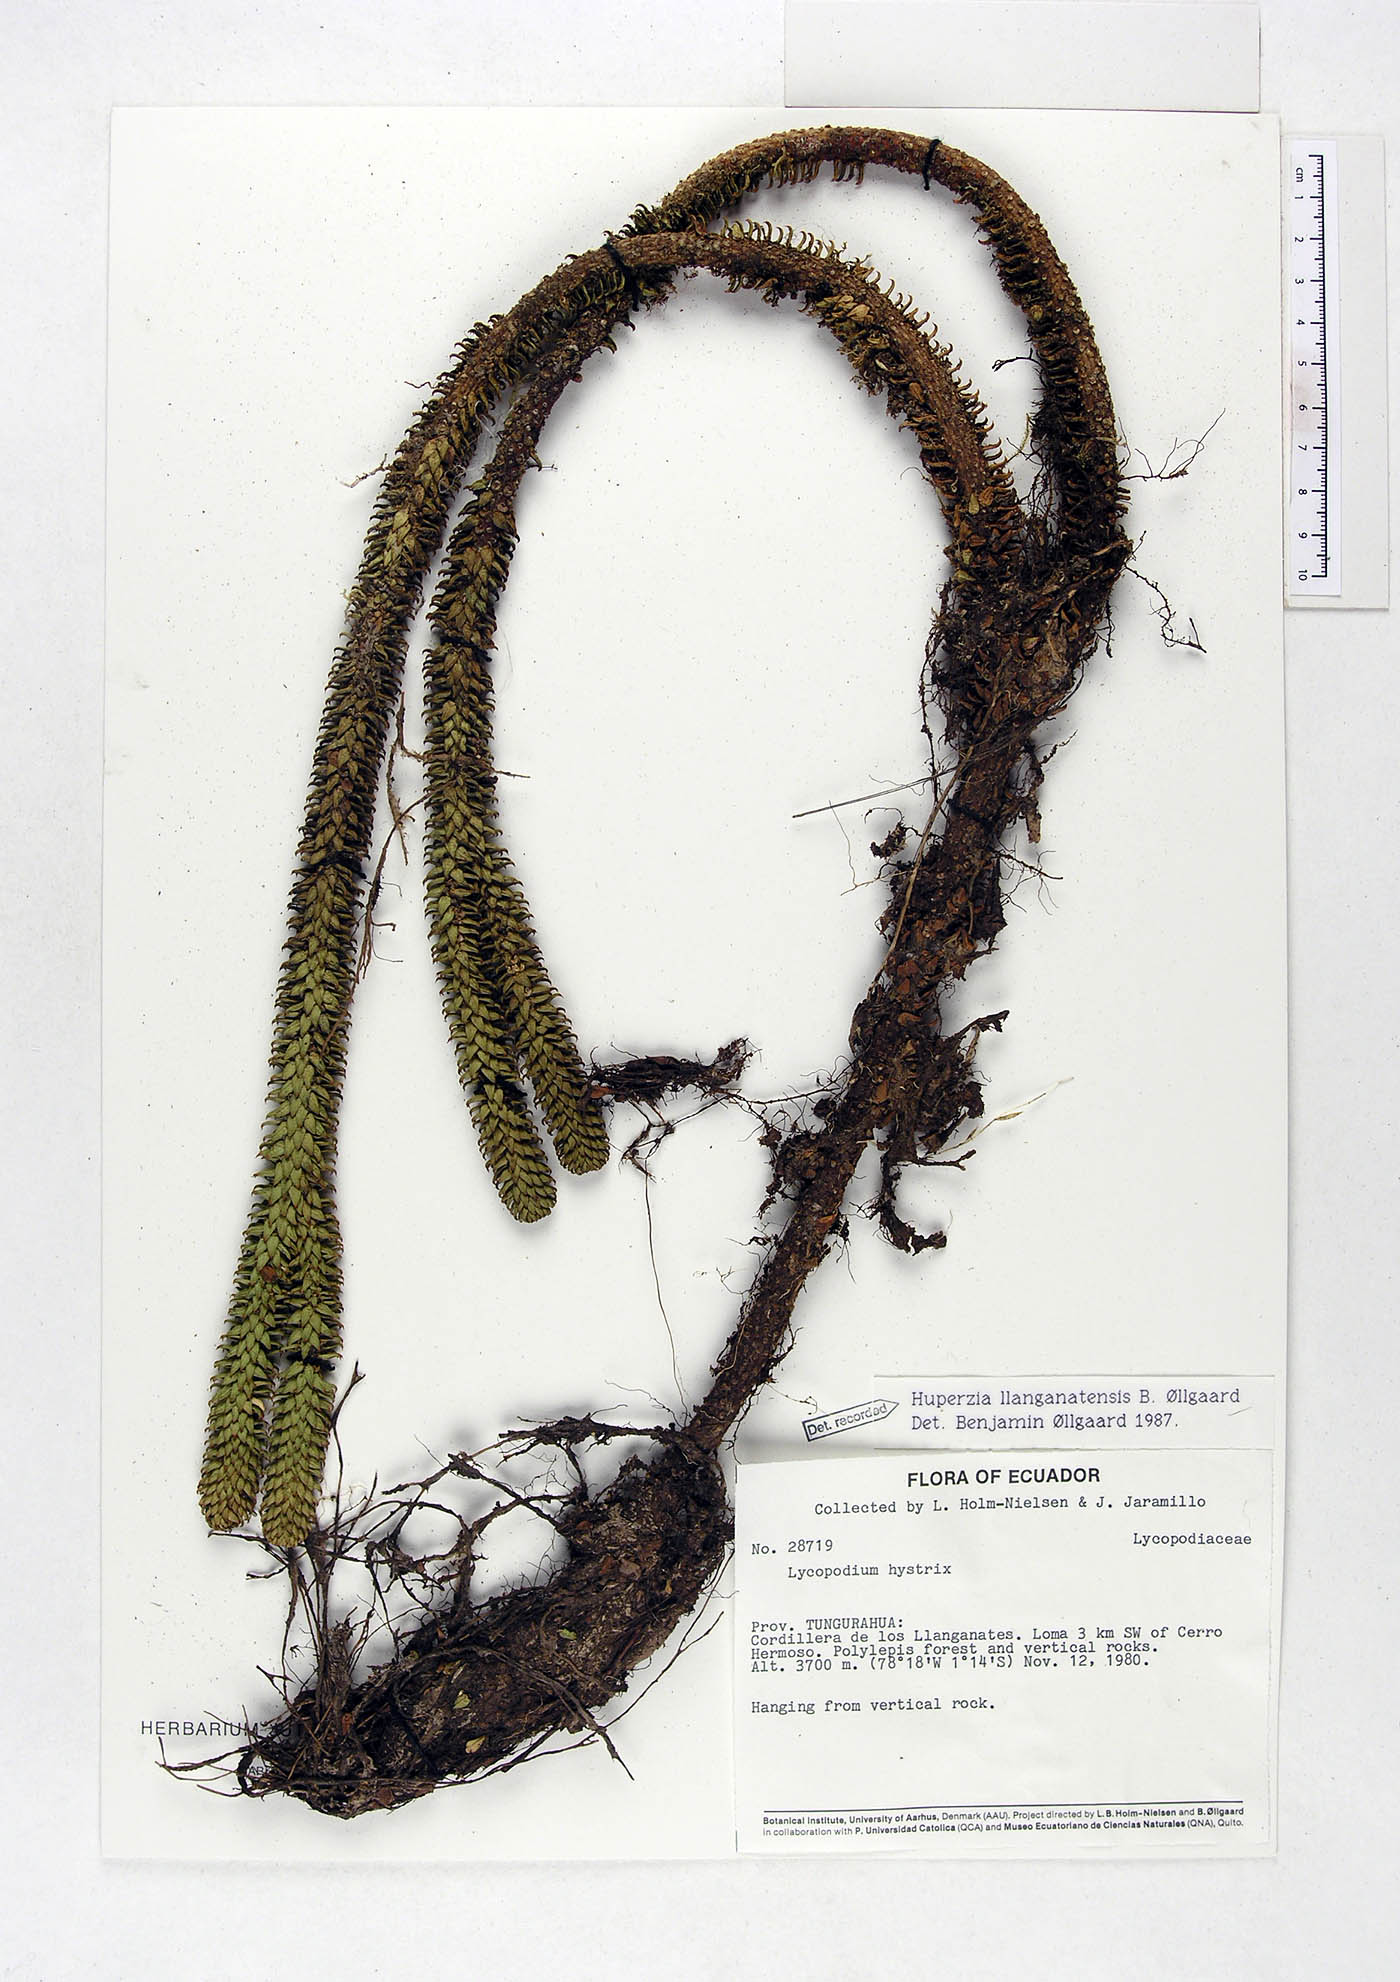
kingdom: Plantae
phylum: Tracheophyta
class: Lycopodiopsida
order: Lycopodiales
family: Lycopodiaceae
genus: Phlegmariurus
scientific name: Phlegmariurus llanganatensis
